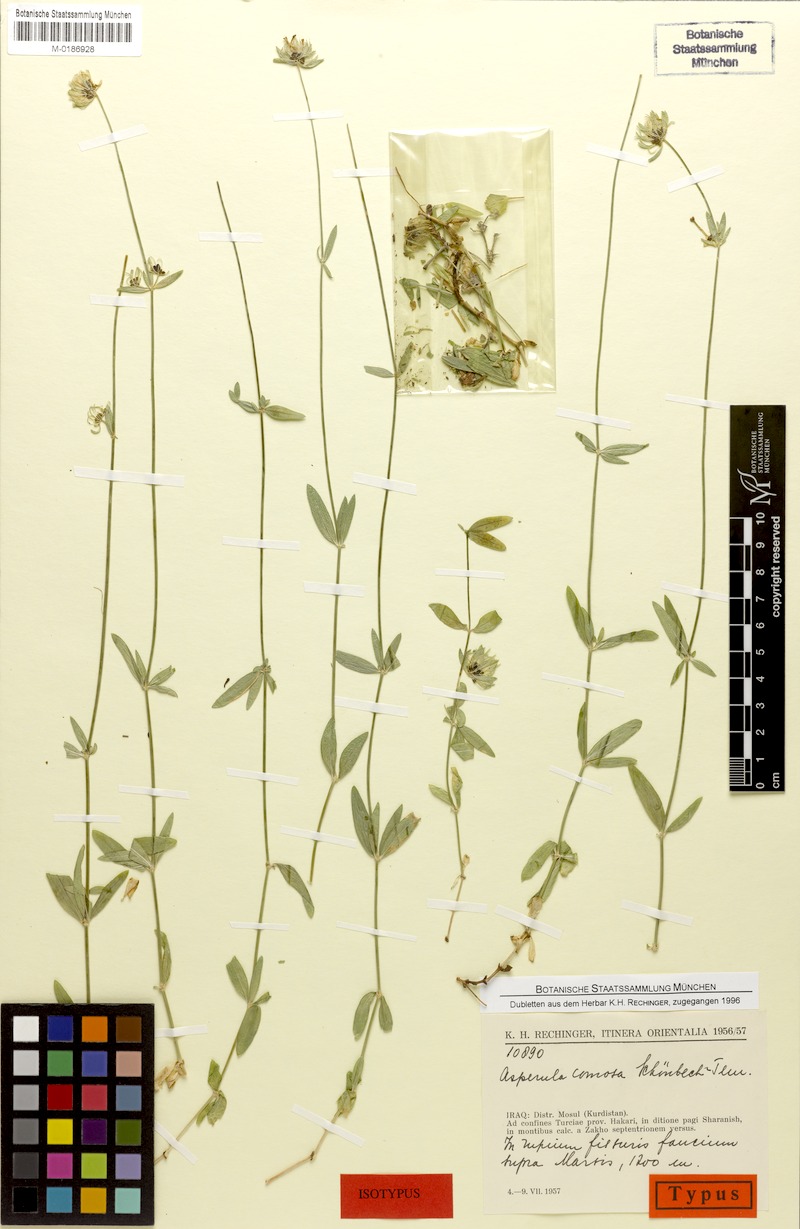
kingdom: Plantae
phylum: Tracheophyta
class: Magnoliopsida
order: Gentianales
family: Rubiaceae
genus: Asperula
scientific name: Asperula comosa
